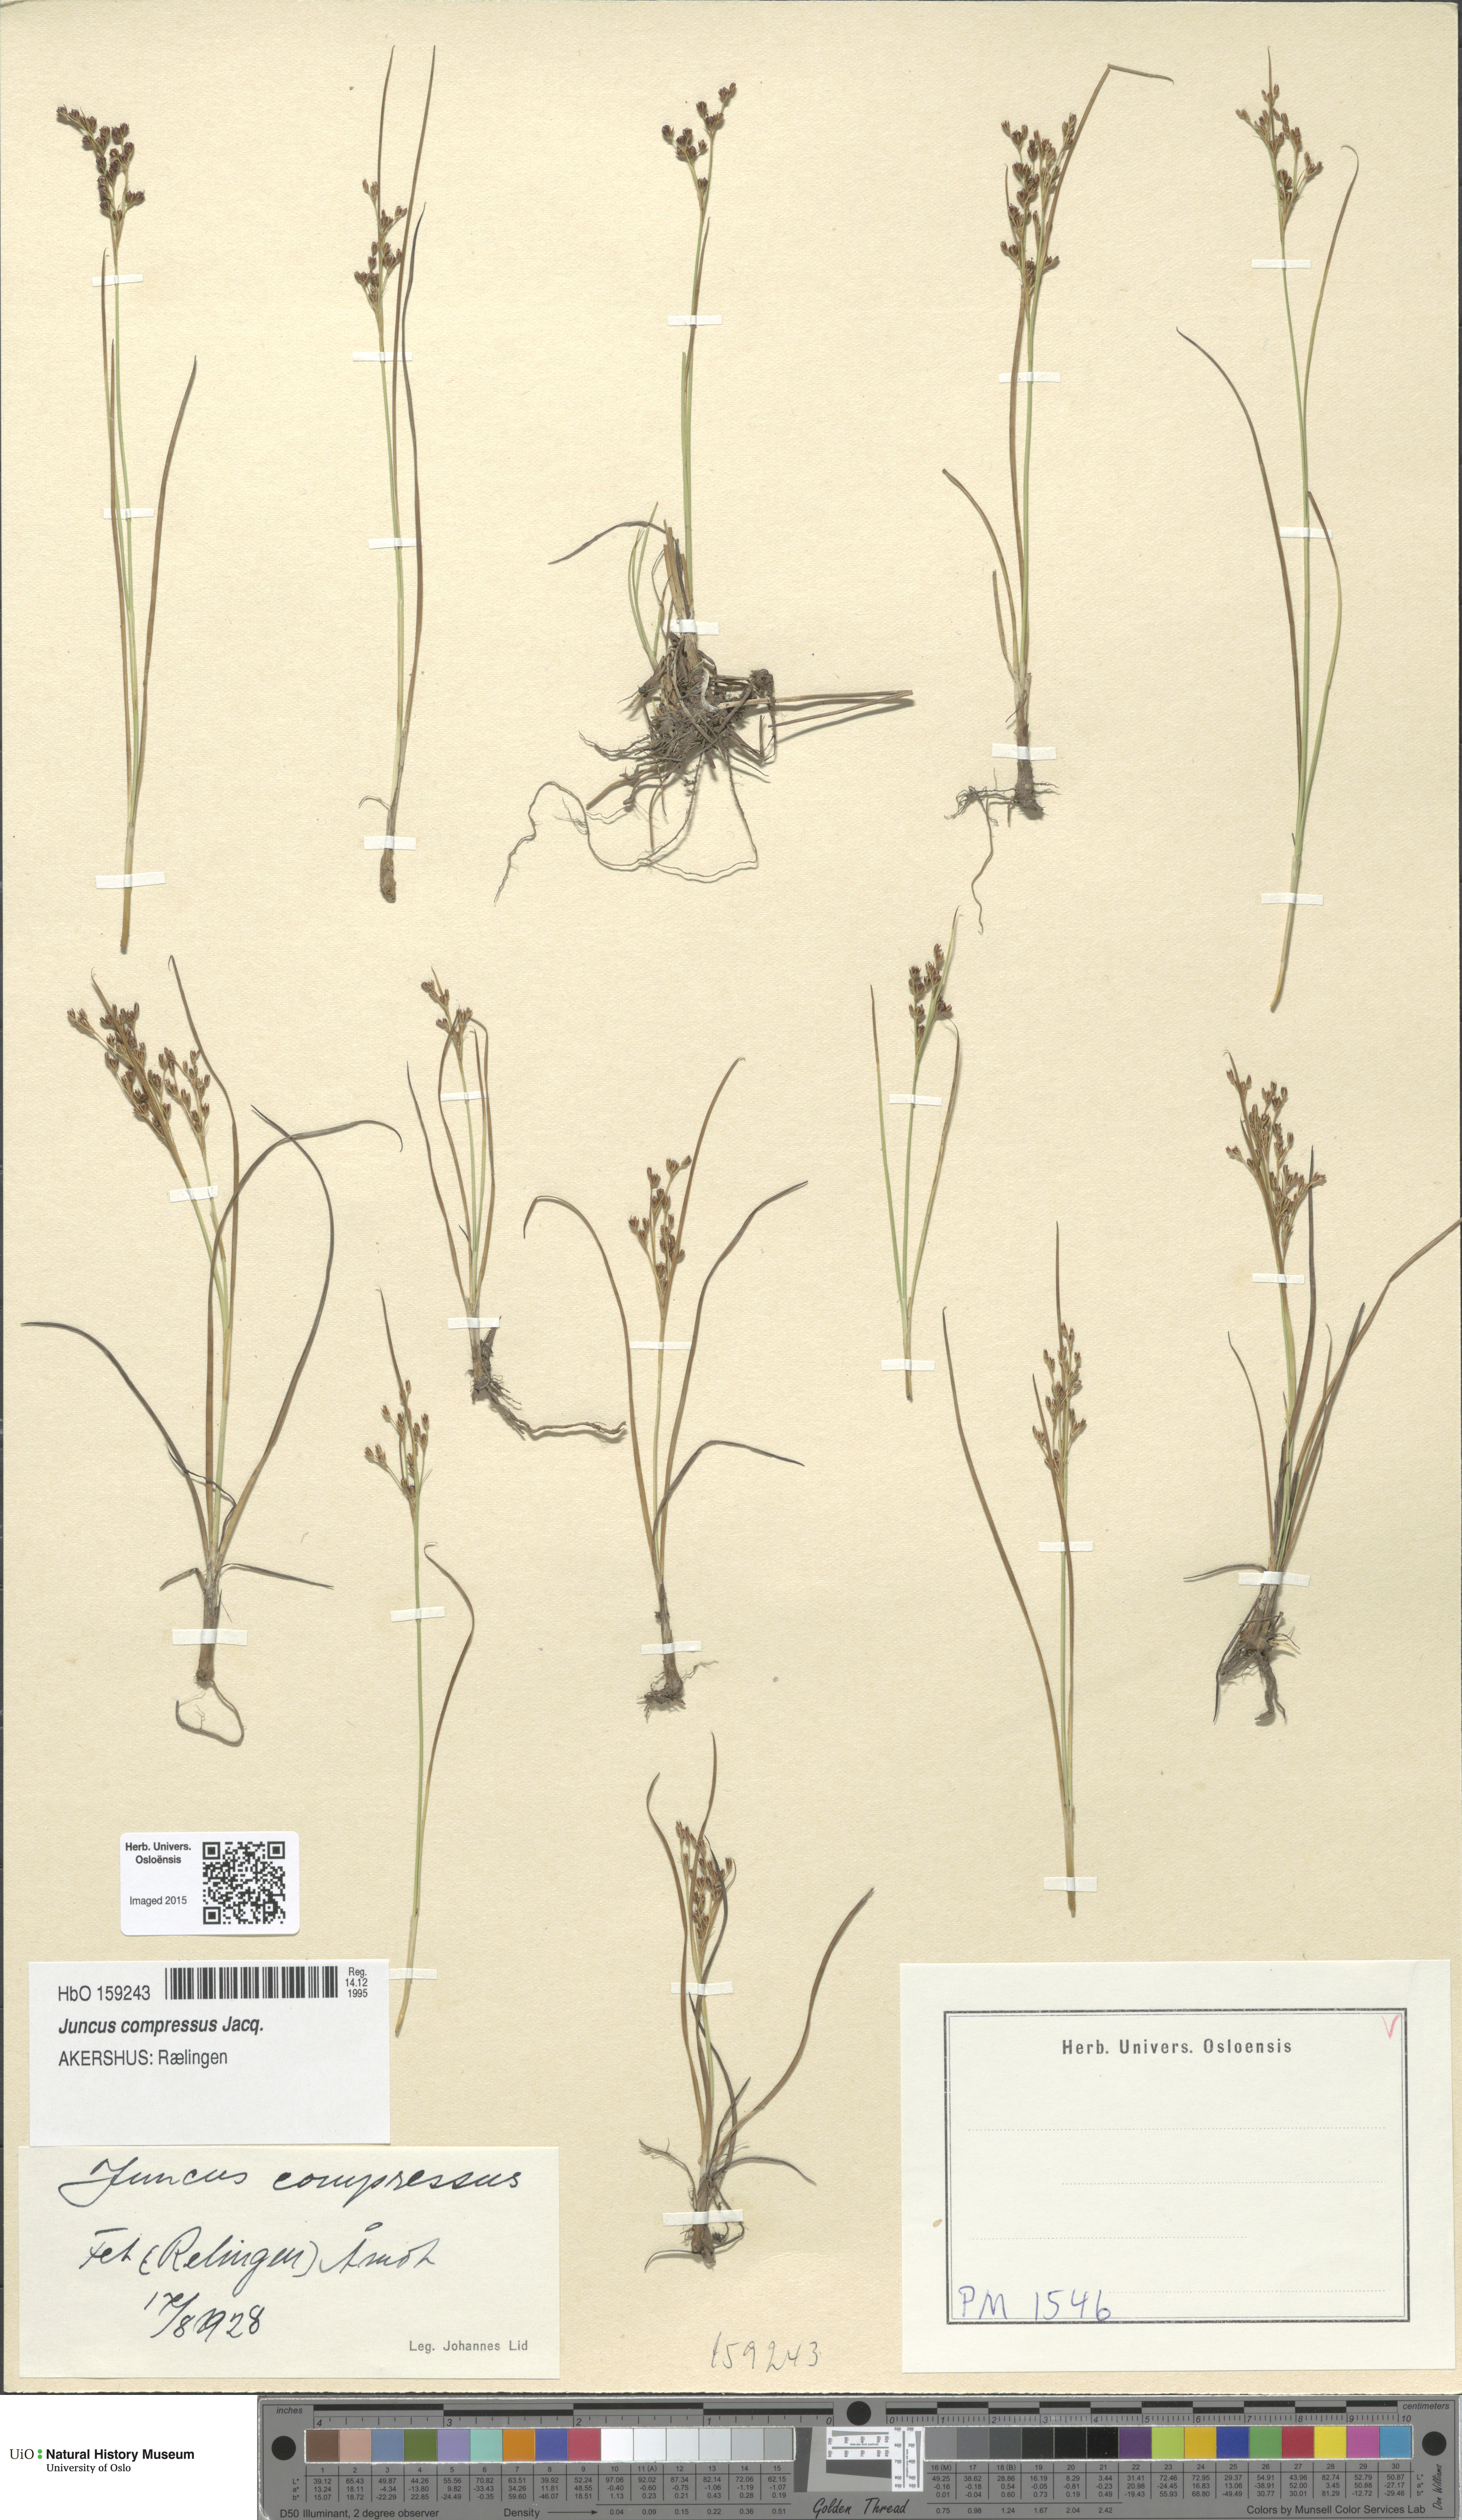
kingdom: Plantae
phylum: Tracheophyta
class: Liliopsida
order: Poales
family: Juncaceae
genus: Juncus
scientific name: Juncus compressus
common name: Round-fruited rush
